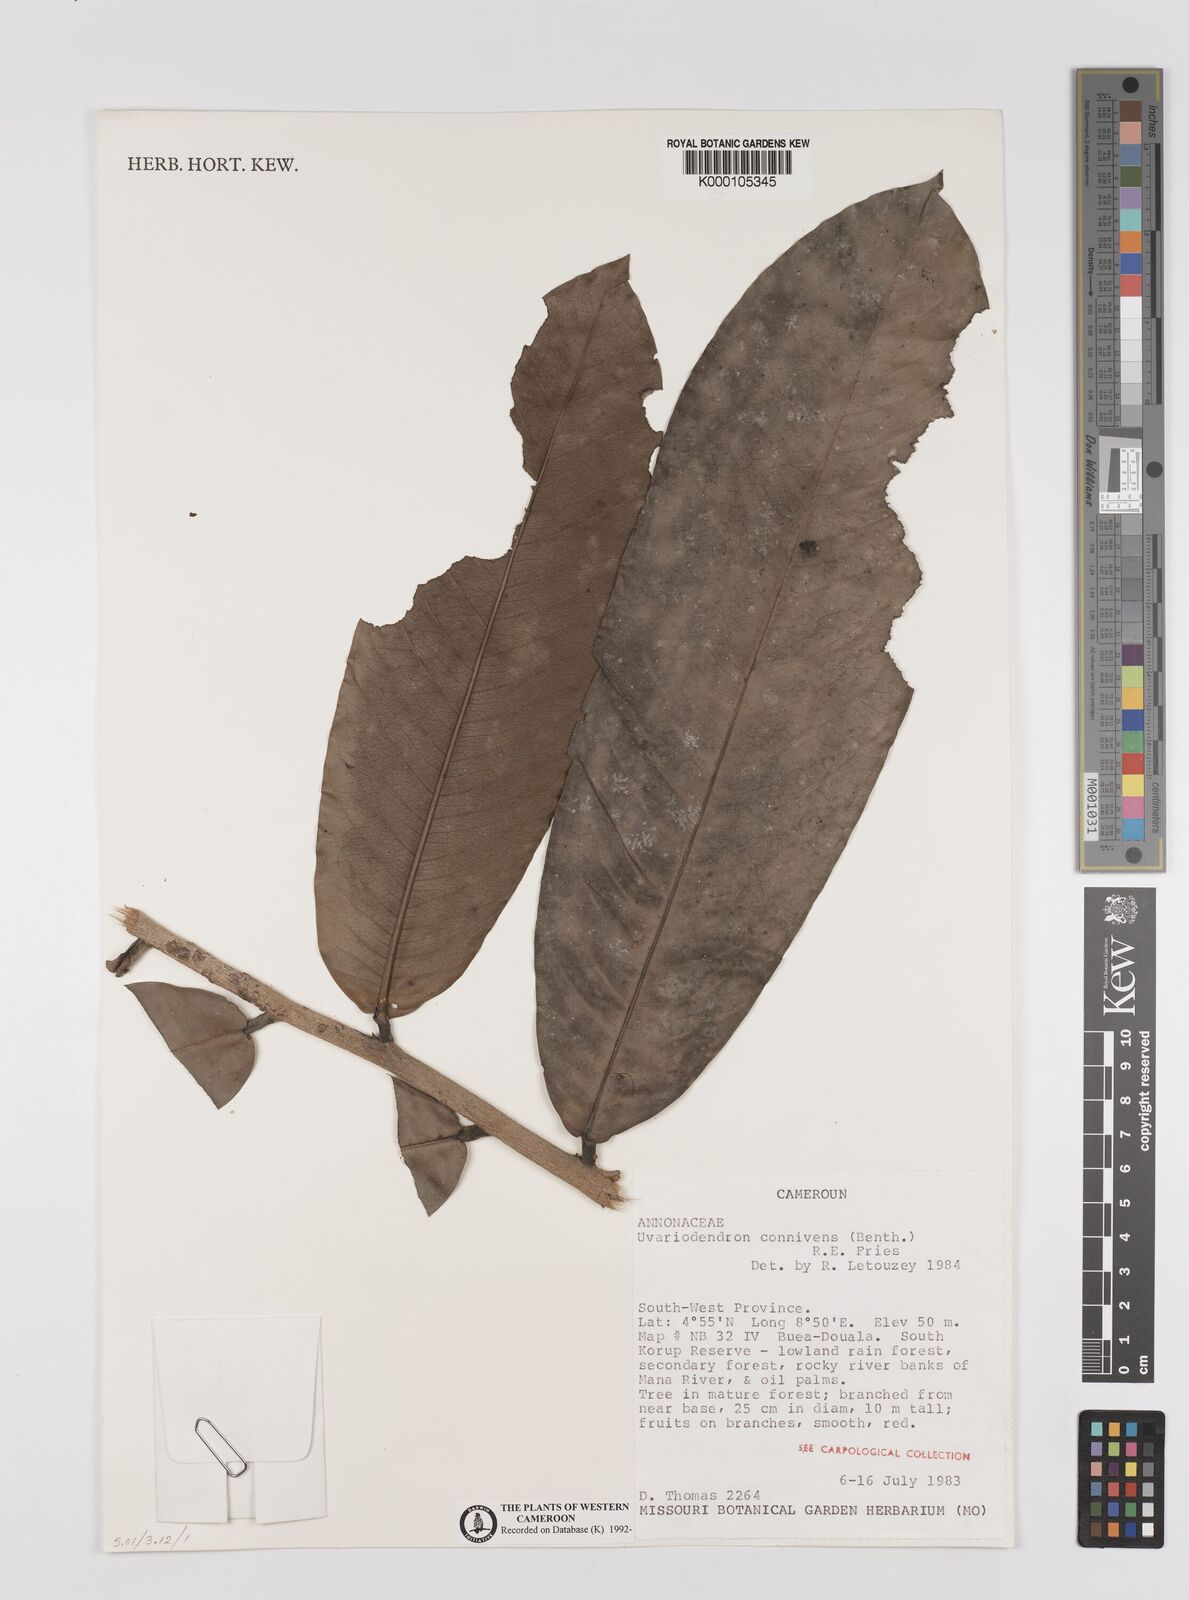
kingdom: Plantae
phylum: Tracheophyta
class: Magnoliopsida
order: Magnoliales
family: Annonaceae
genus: Uvariodendron
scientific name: Uvariodendron connivens
